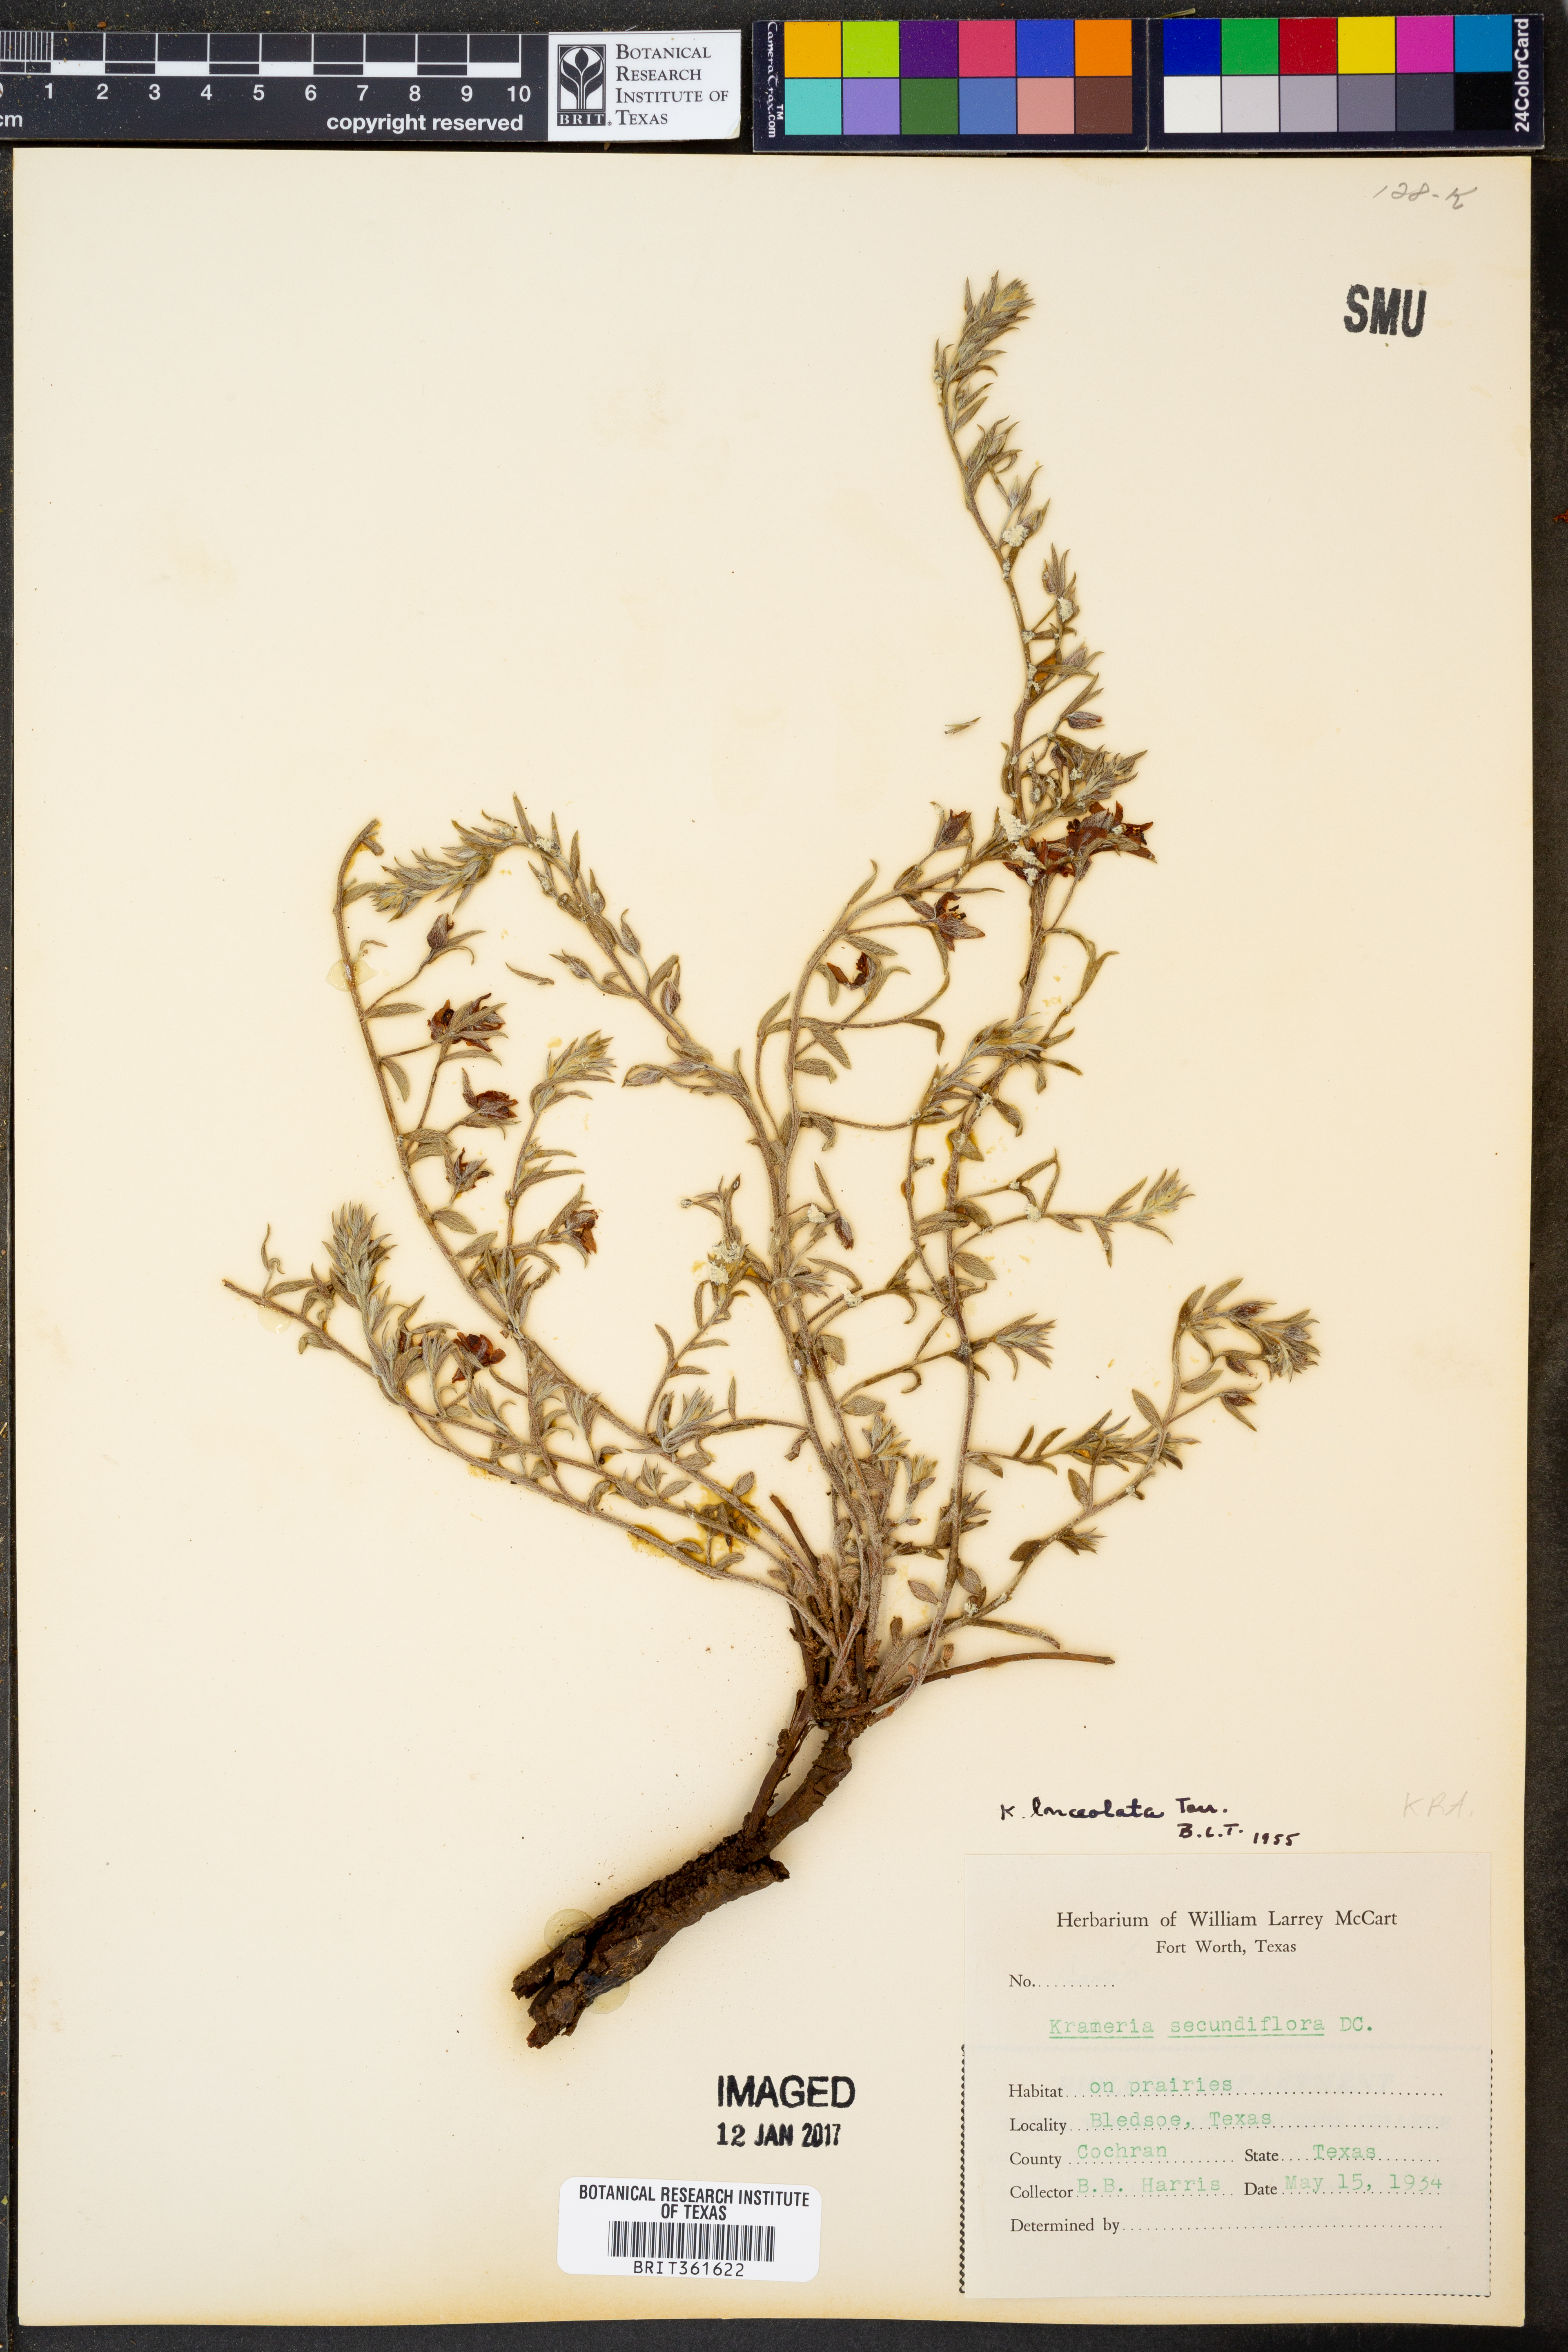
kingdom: Plantae
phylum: Tracheophyta
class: Magnoliopsida
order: Zygophyllales
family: Krameriaceae
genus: Krameria
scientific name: Krameria lanceolata
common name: Ratany
